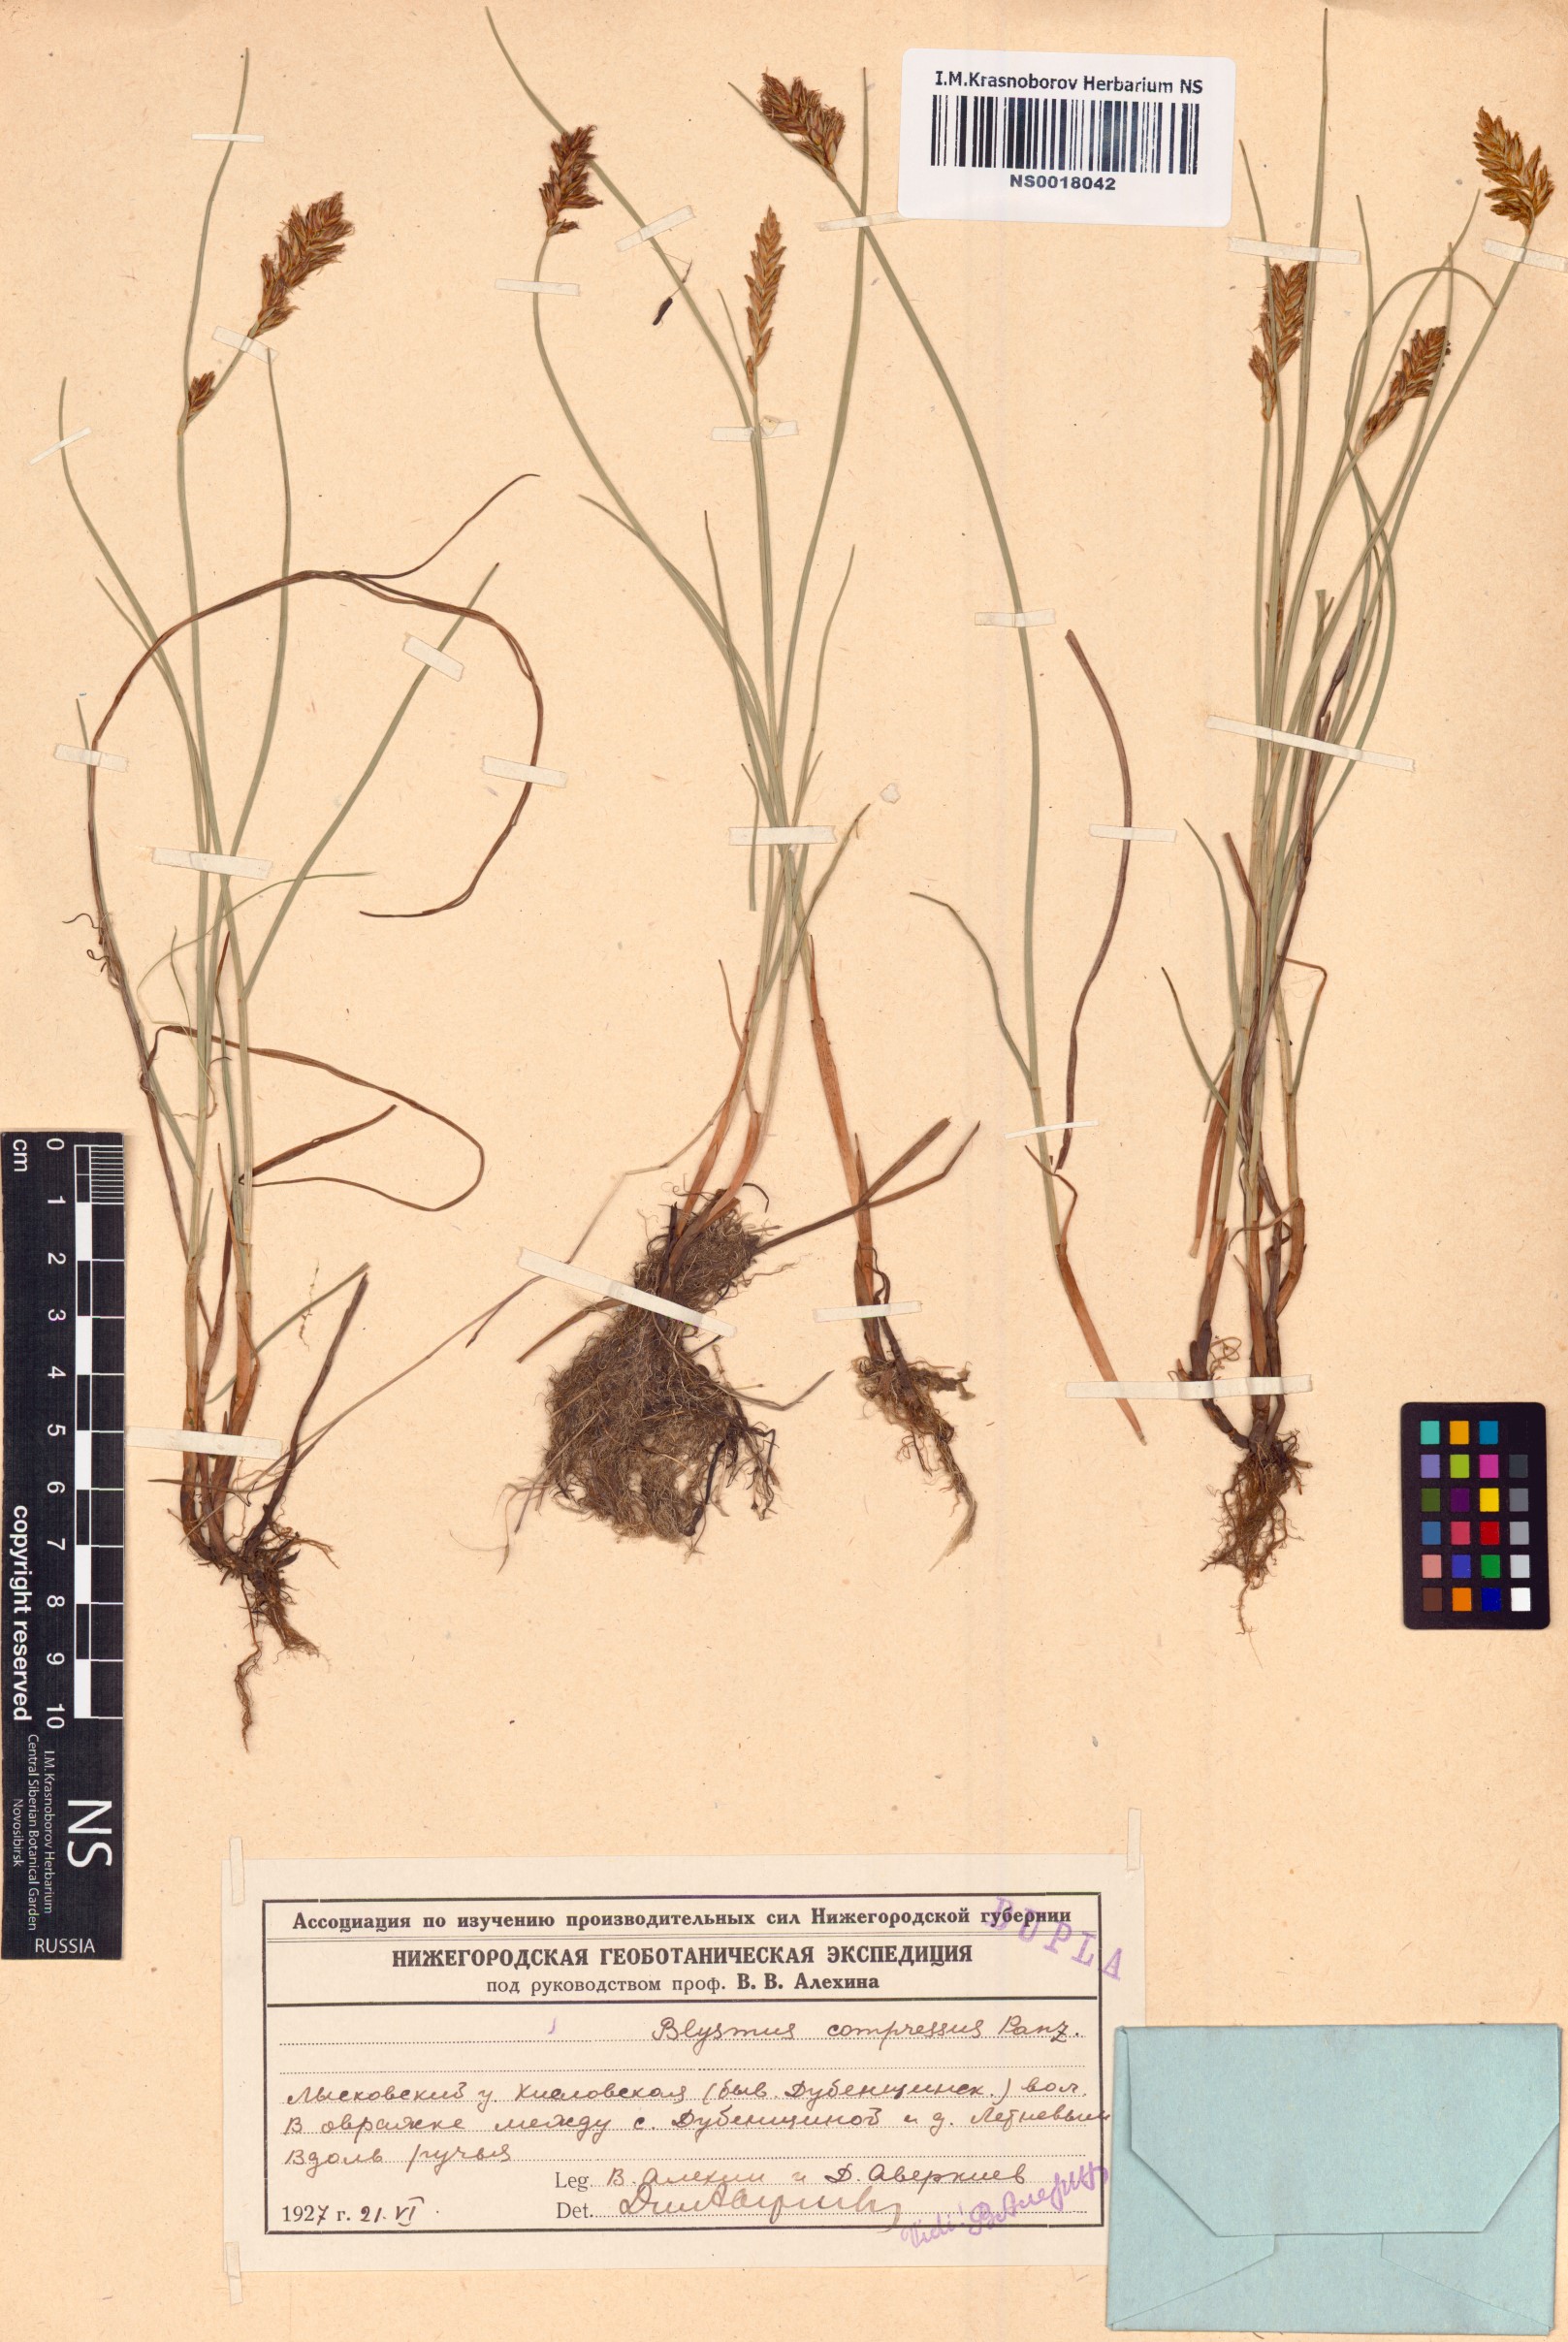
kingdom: Plantae
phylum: Tracheophyta
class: Liliopsida
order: Poales
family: Cyperaceae
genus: Blysmus
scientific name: Blysmus compressus
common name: Flat-sedge
